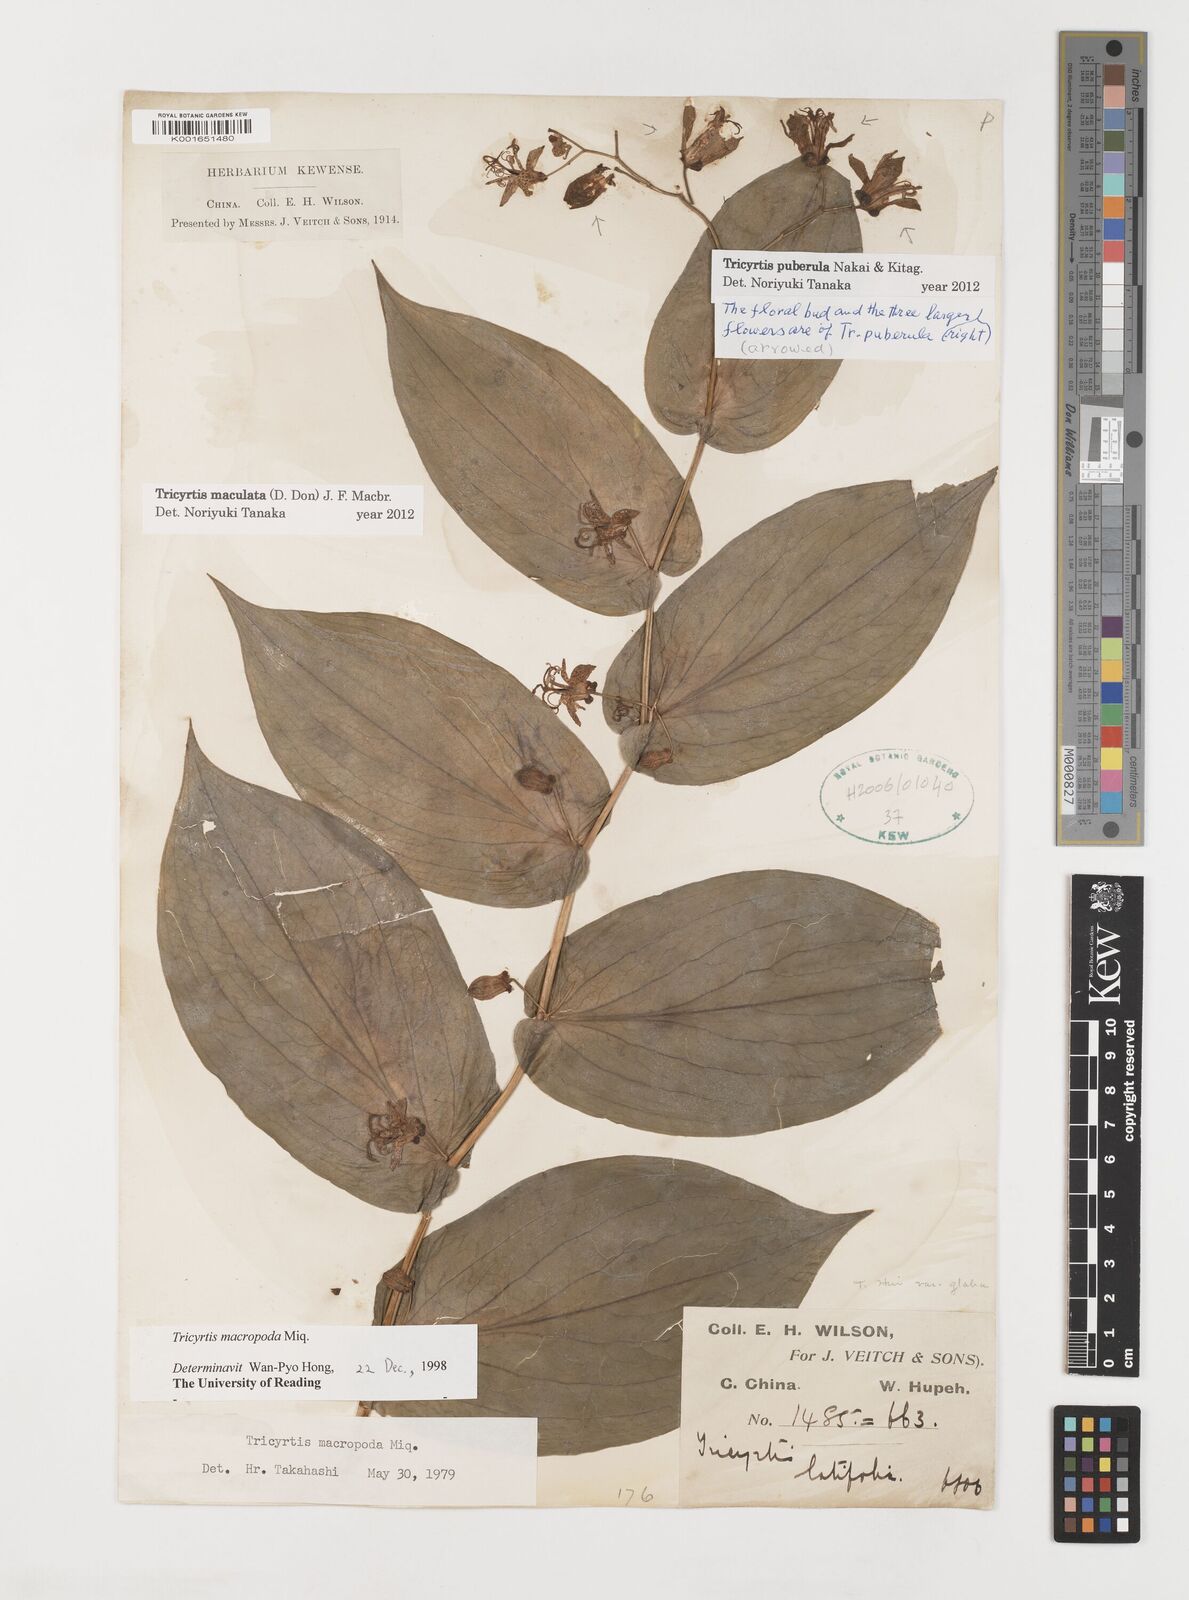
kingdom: Plantae
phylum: Tracheophyta
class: Liliopsida
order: Liliales
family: Liliaceae
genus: Tricyrtis
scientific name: Tricyrtis puberula
